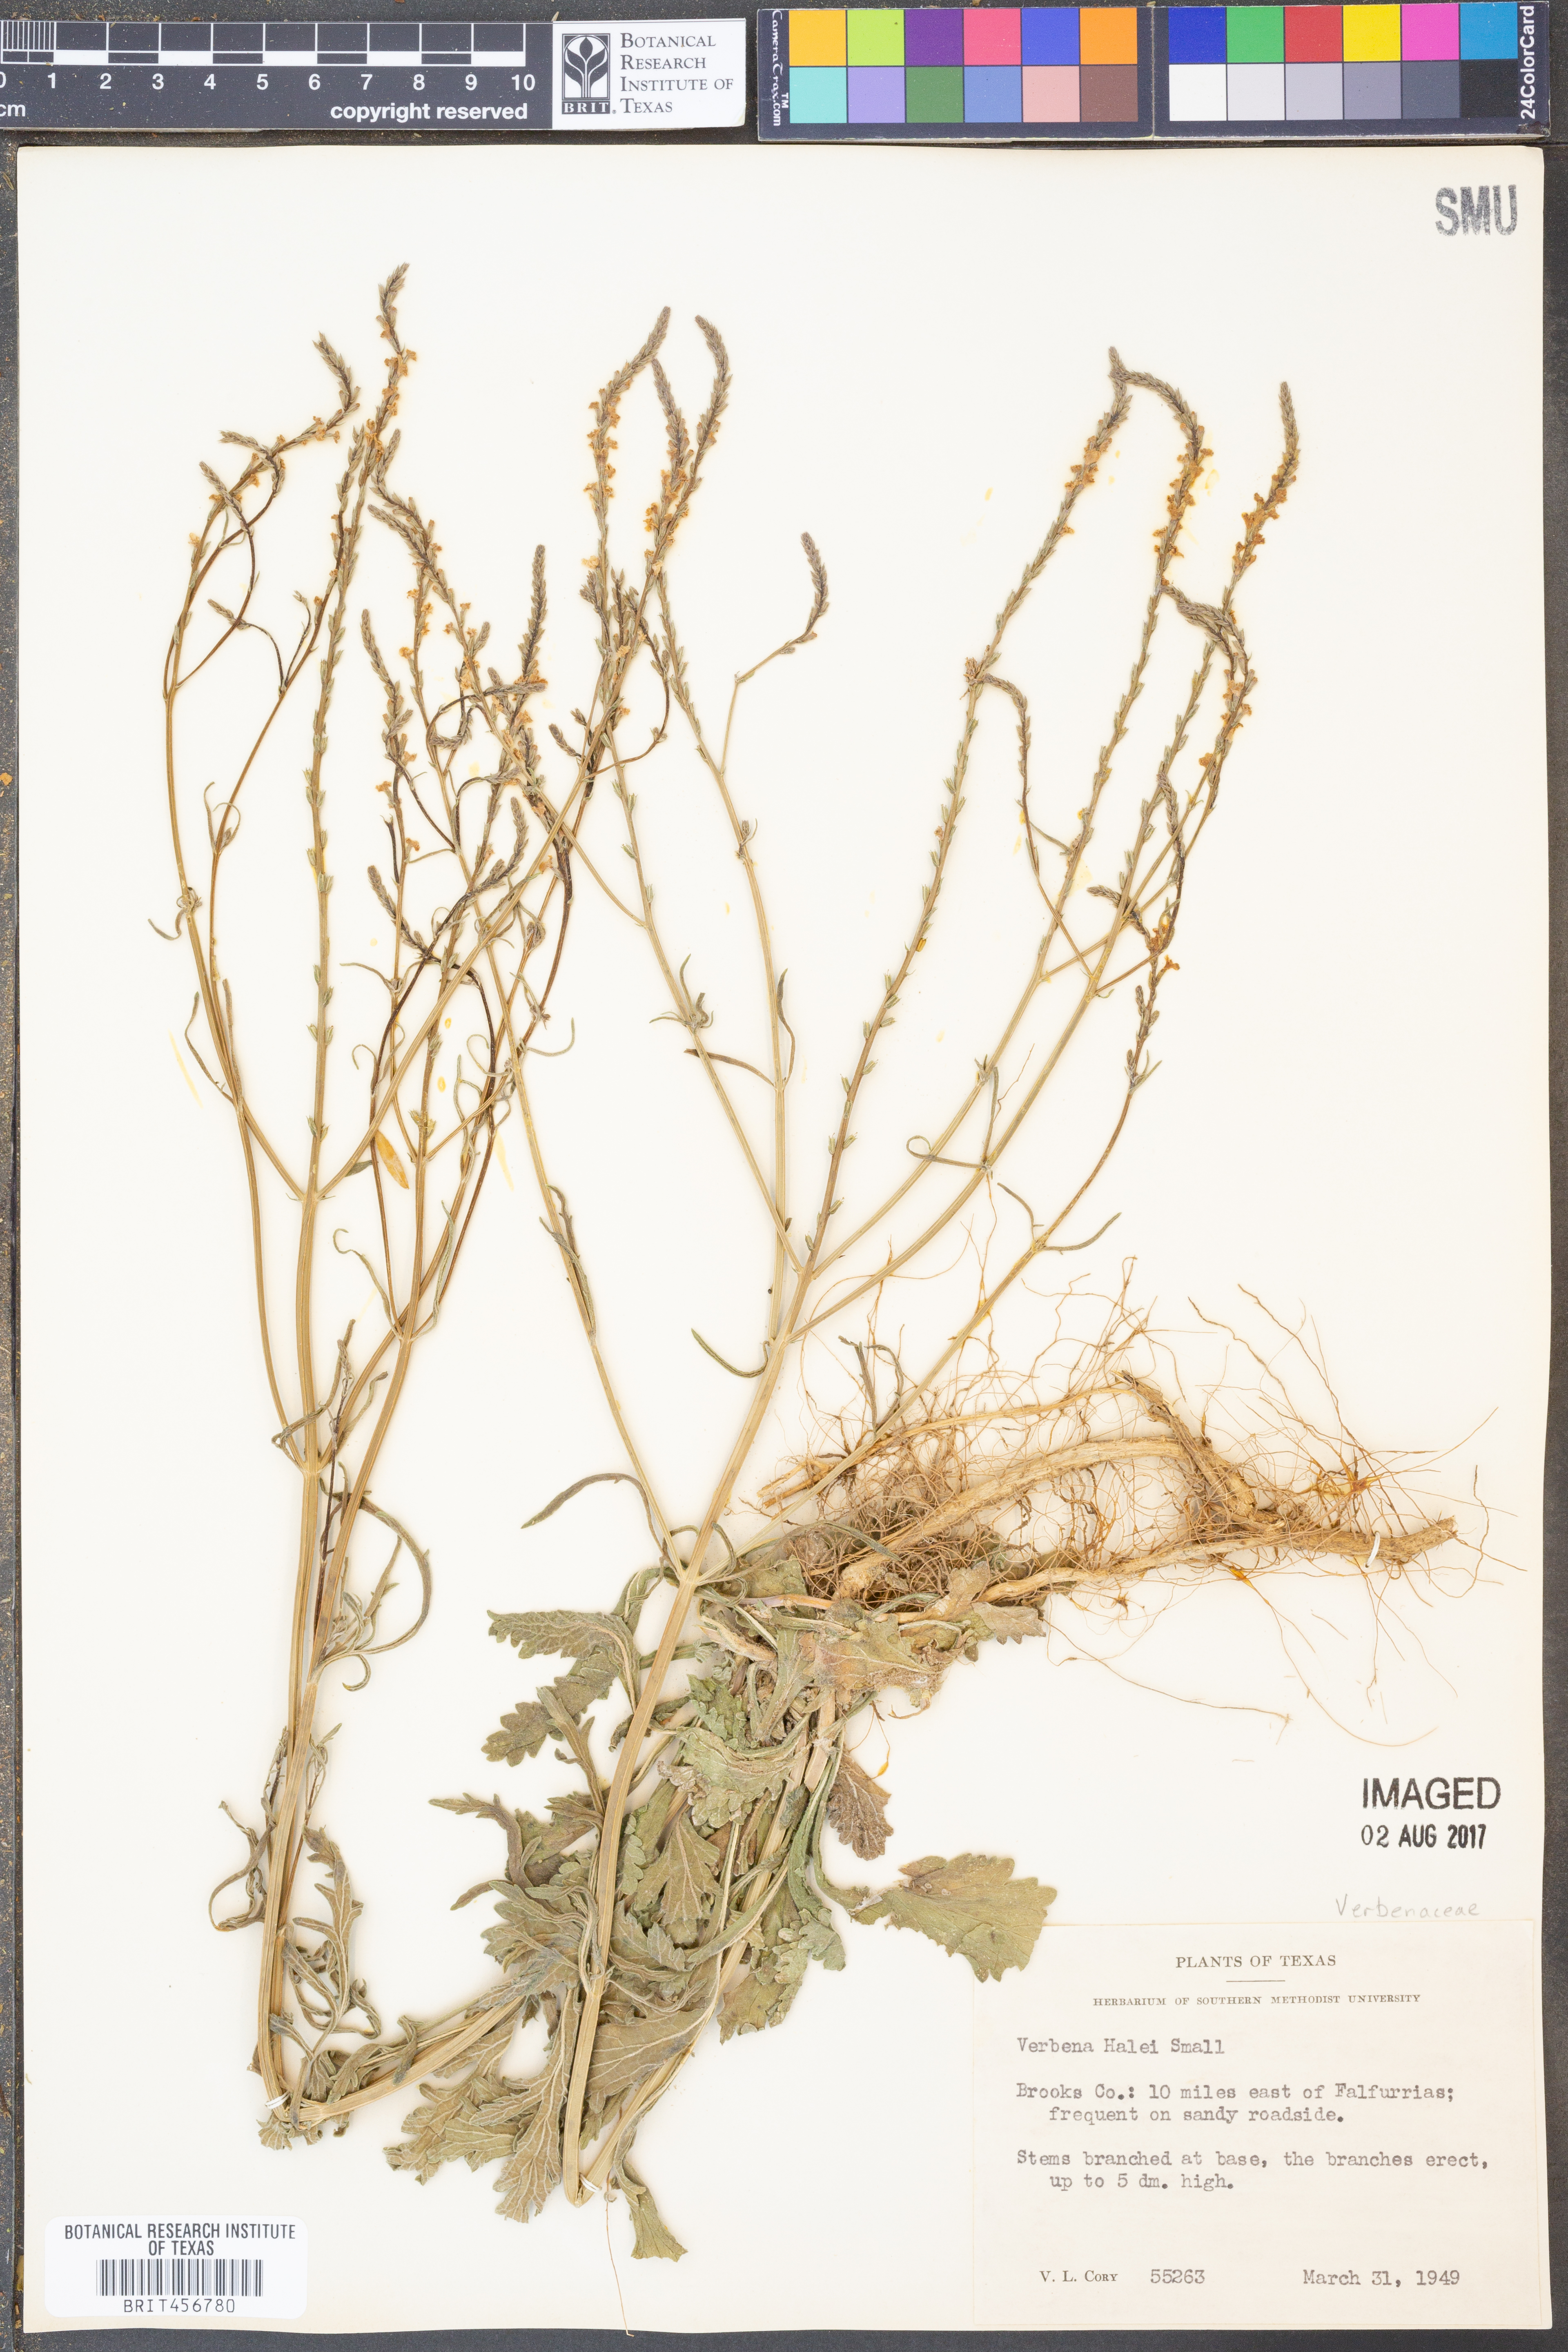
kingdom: Plantae
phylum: Tracheophyta
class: Magnoliopsida
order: Lamiales
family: Verbenaceae
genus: Verbena
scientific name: Verbena halei
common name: Texas vervain
